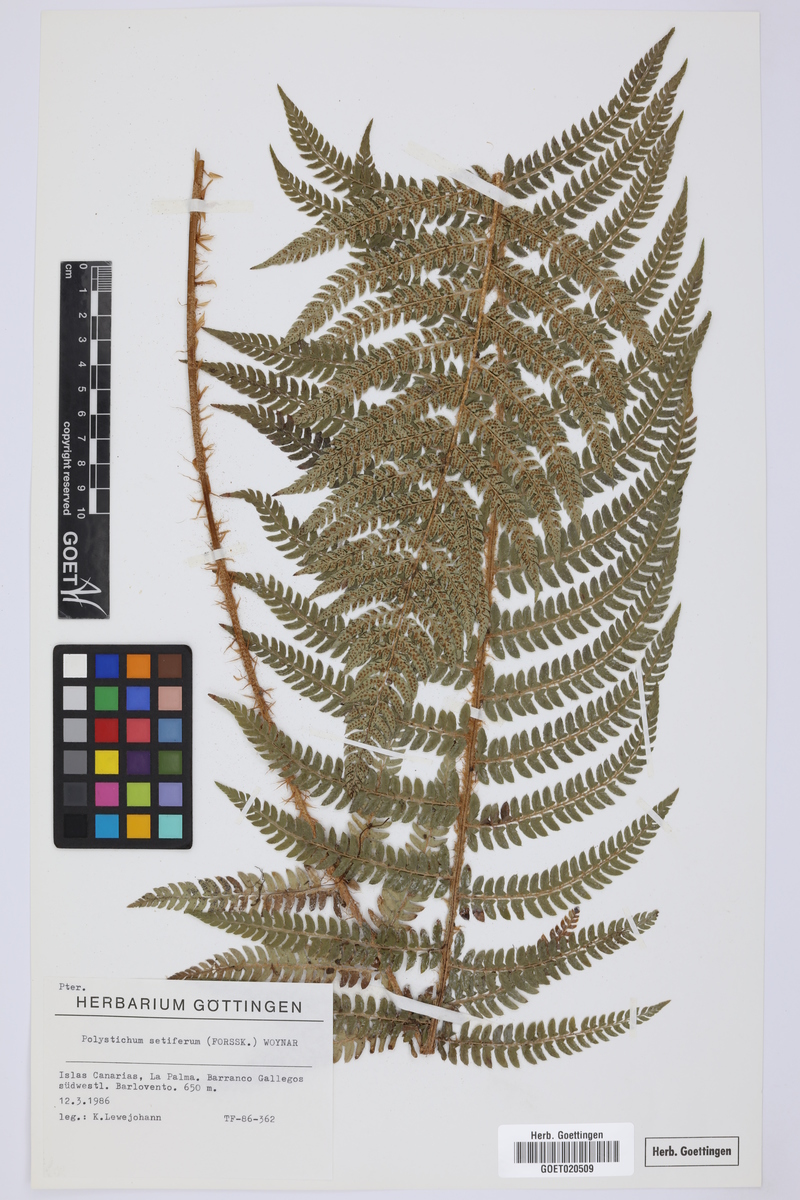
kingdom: Plantae
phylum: Tracheophyta
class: Polypodiopsida
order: Polypodiales
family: Dryopteridaceae
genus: Polystichum
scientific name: Polystichum setiferum
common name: Soft shield-fern
